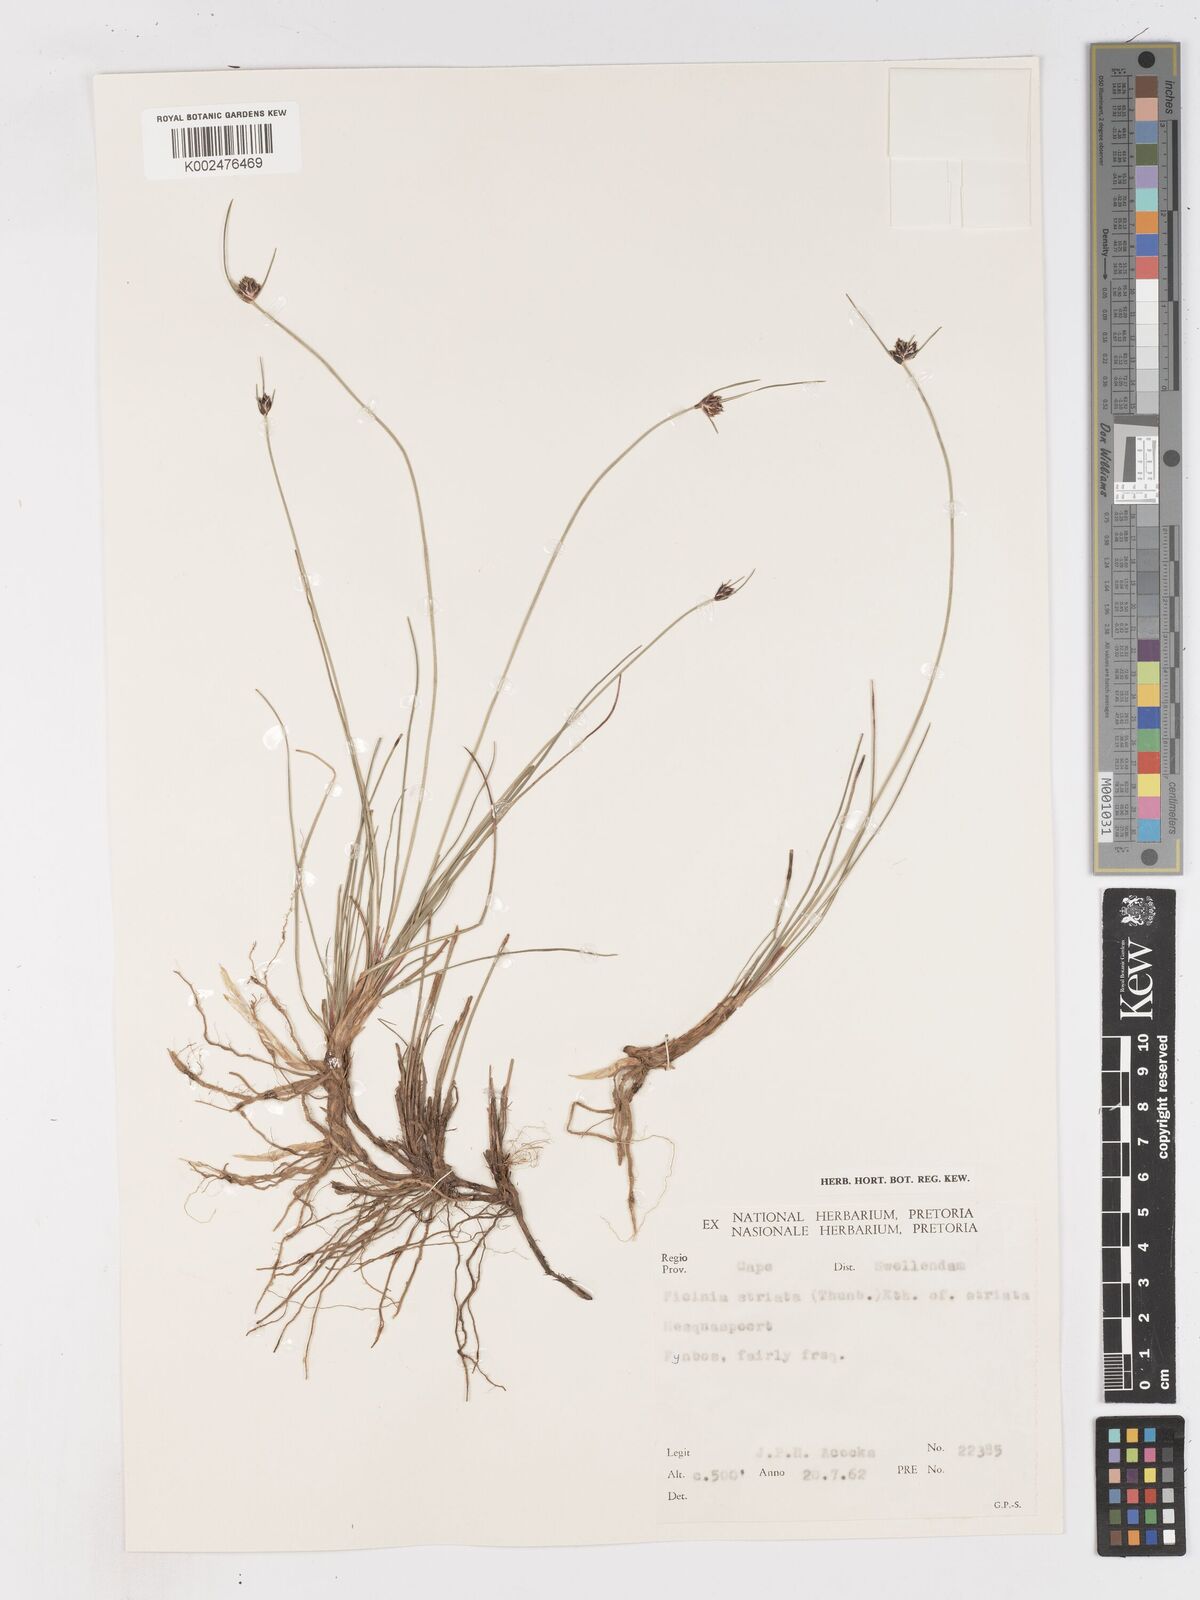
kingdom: Plantae
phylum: Tracheophyta
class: Liliopsida
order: Poales
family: Cyperaceae
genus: Ficinia
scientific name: Ficinia indica
